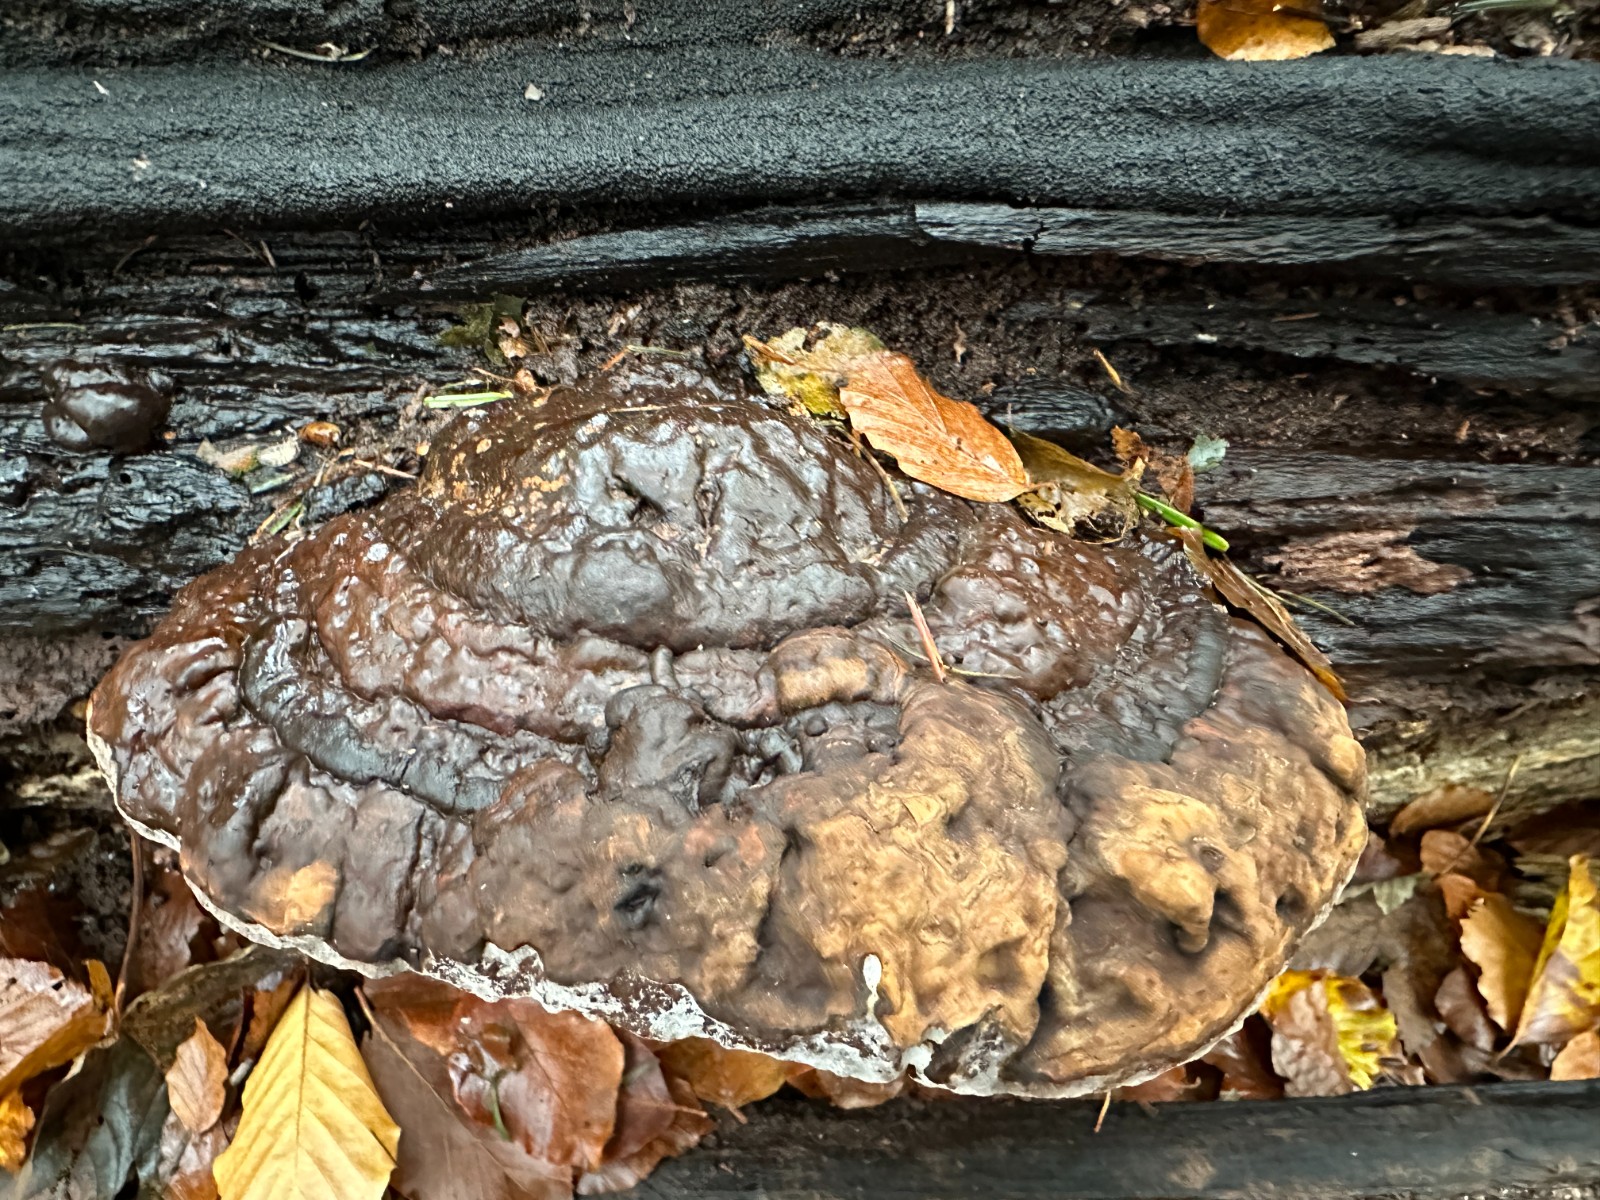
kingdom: Fungi
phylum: Basidiomycota
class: Agaricomycetes
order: Polyporales
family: Polyporaceae
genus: Ganoderma
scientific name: Ganoderma applanatum
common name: flad lakporesvamp
